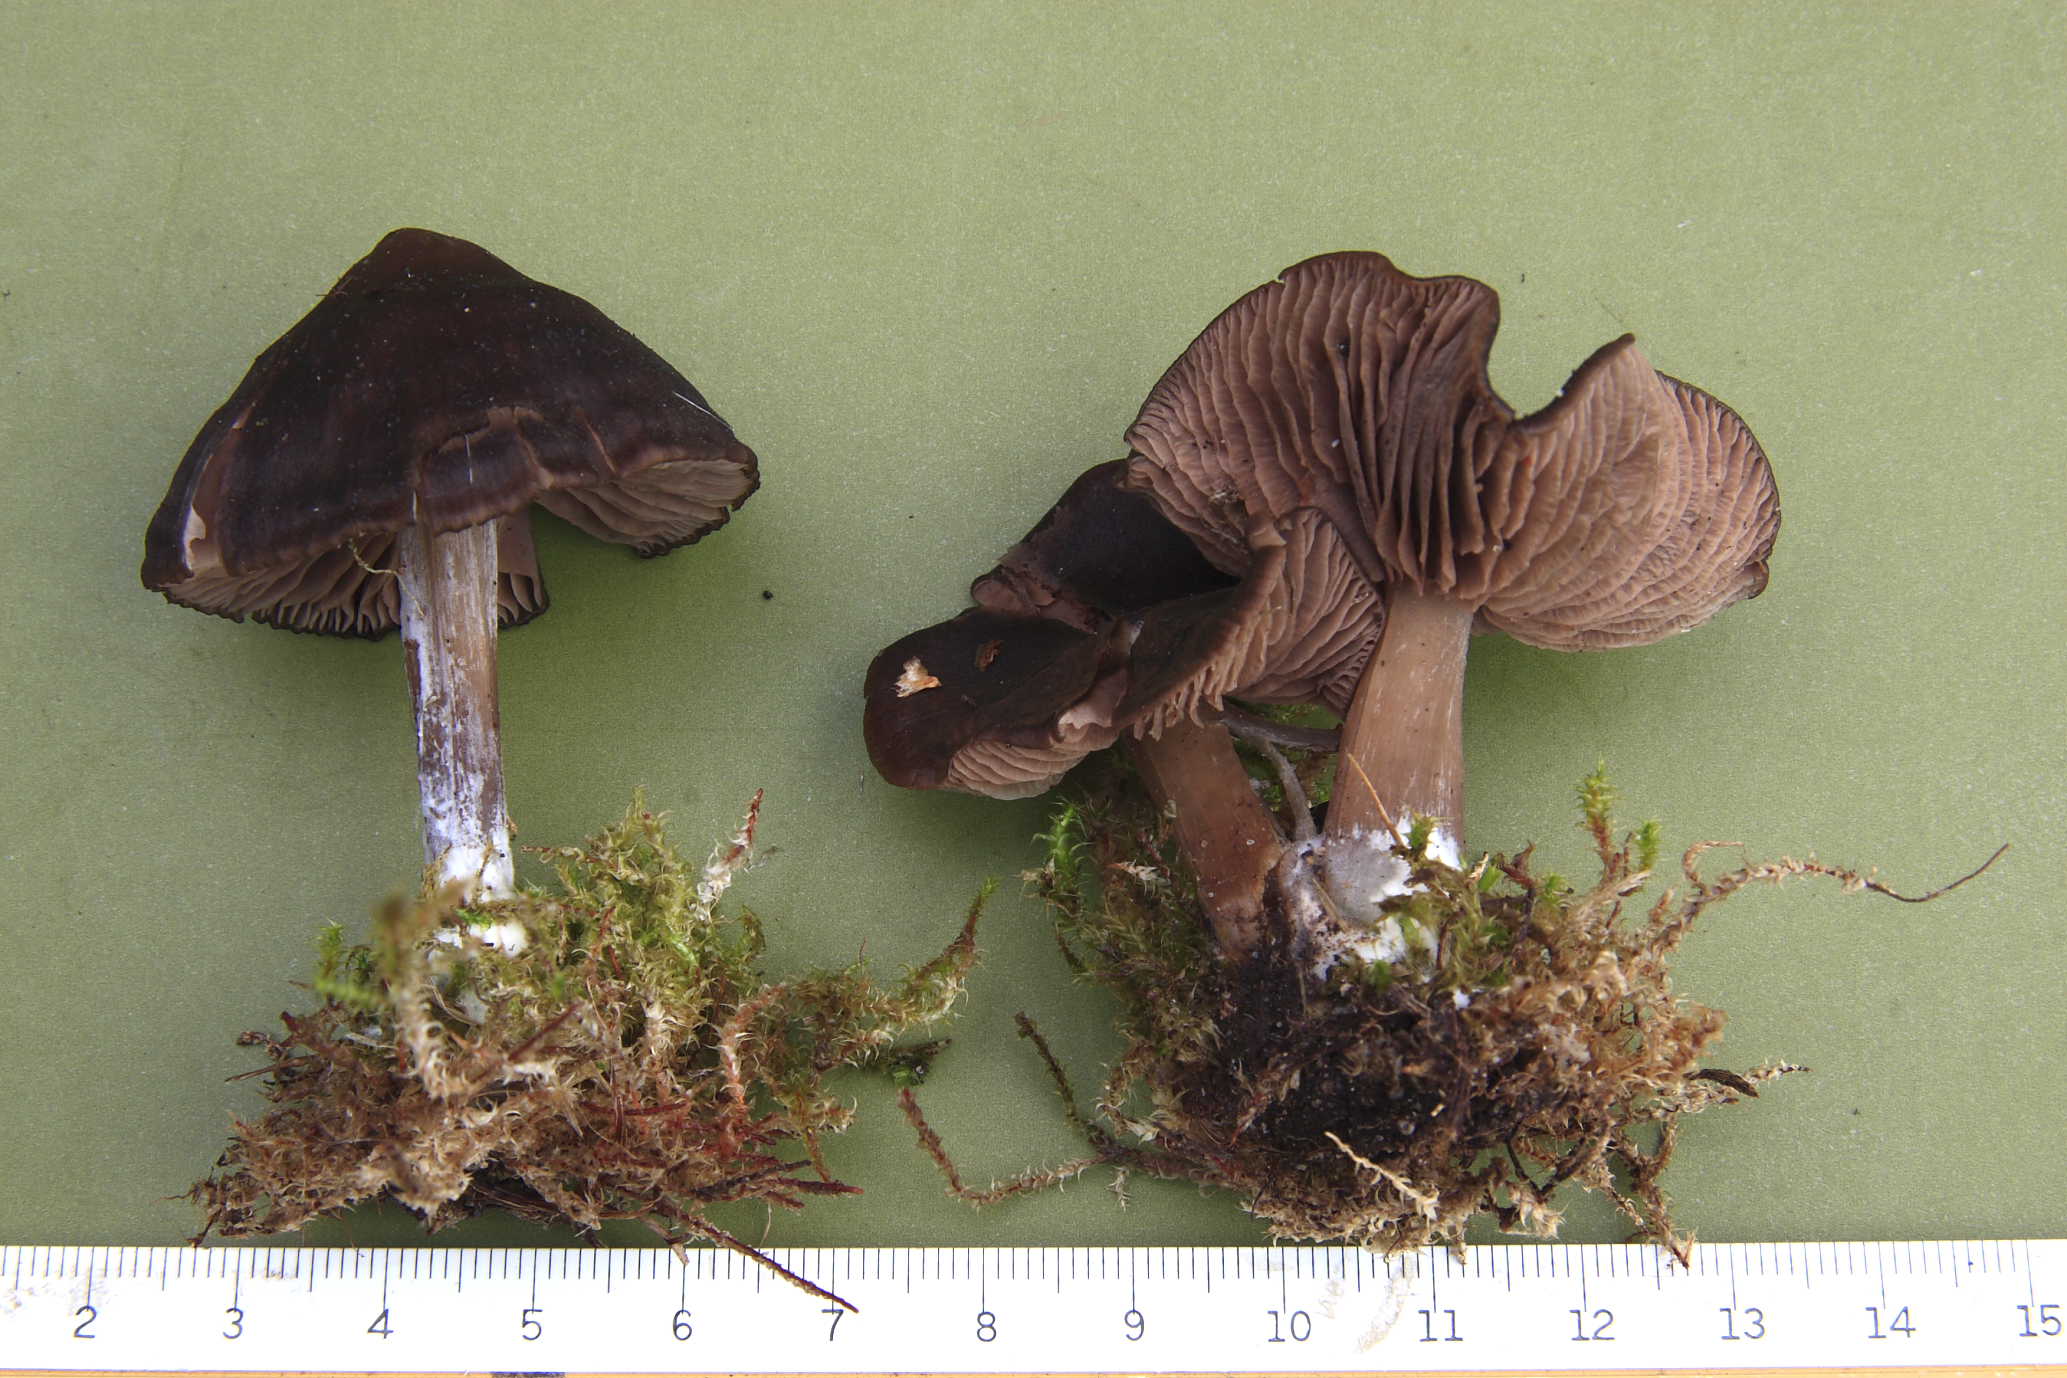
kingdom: Fungi
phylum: Basidiomycota
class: Agaricomycetes
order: Agaricales
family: Entolomataceae
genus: Entoloma
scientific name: Entoloma
